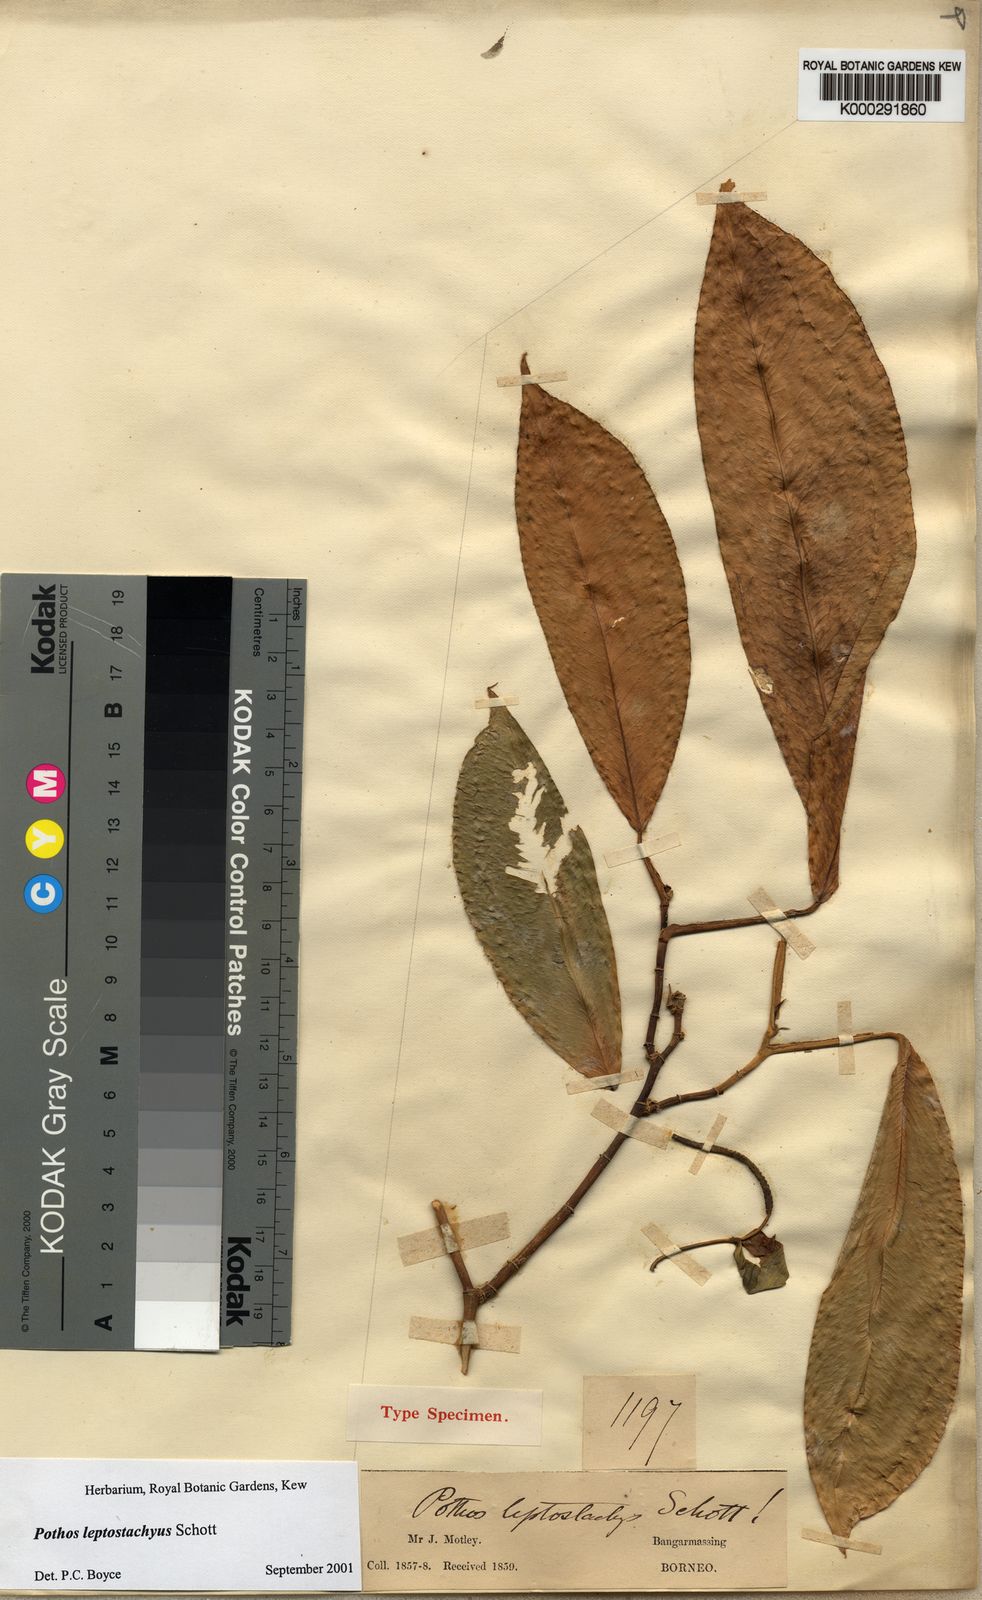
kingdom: Plantae
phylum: Tracheophyta
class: Liliopsida
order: Alismatales
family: Araceae
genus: Pothos
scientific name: Pothos leptostachyus
